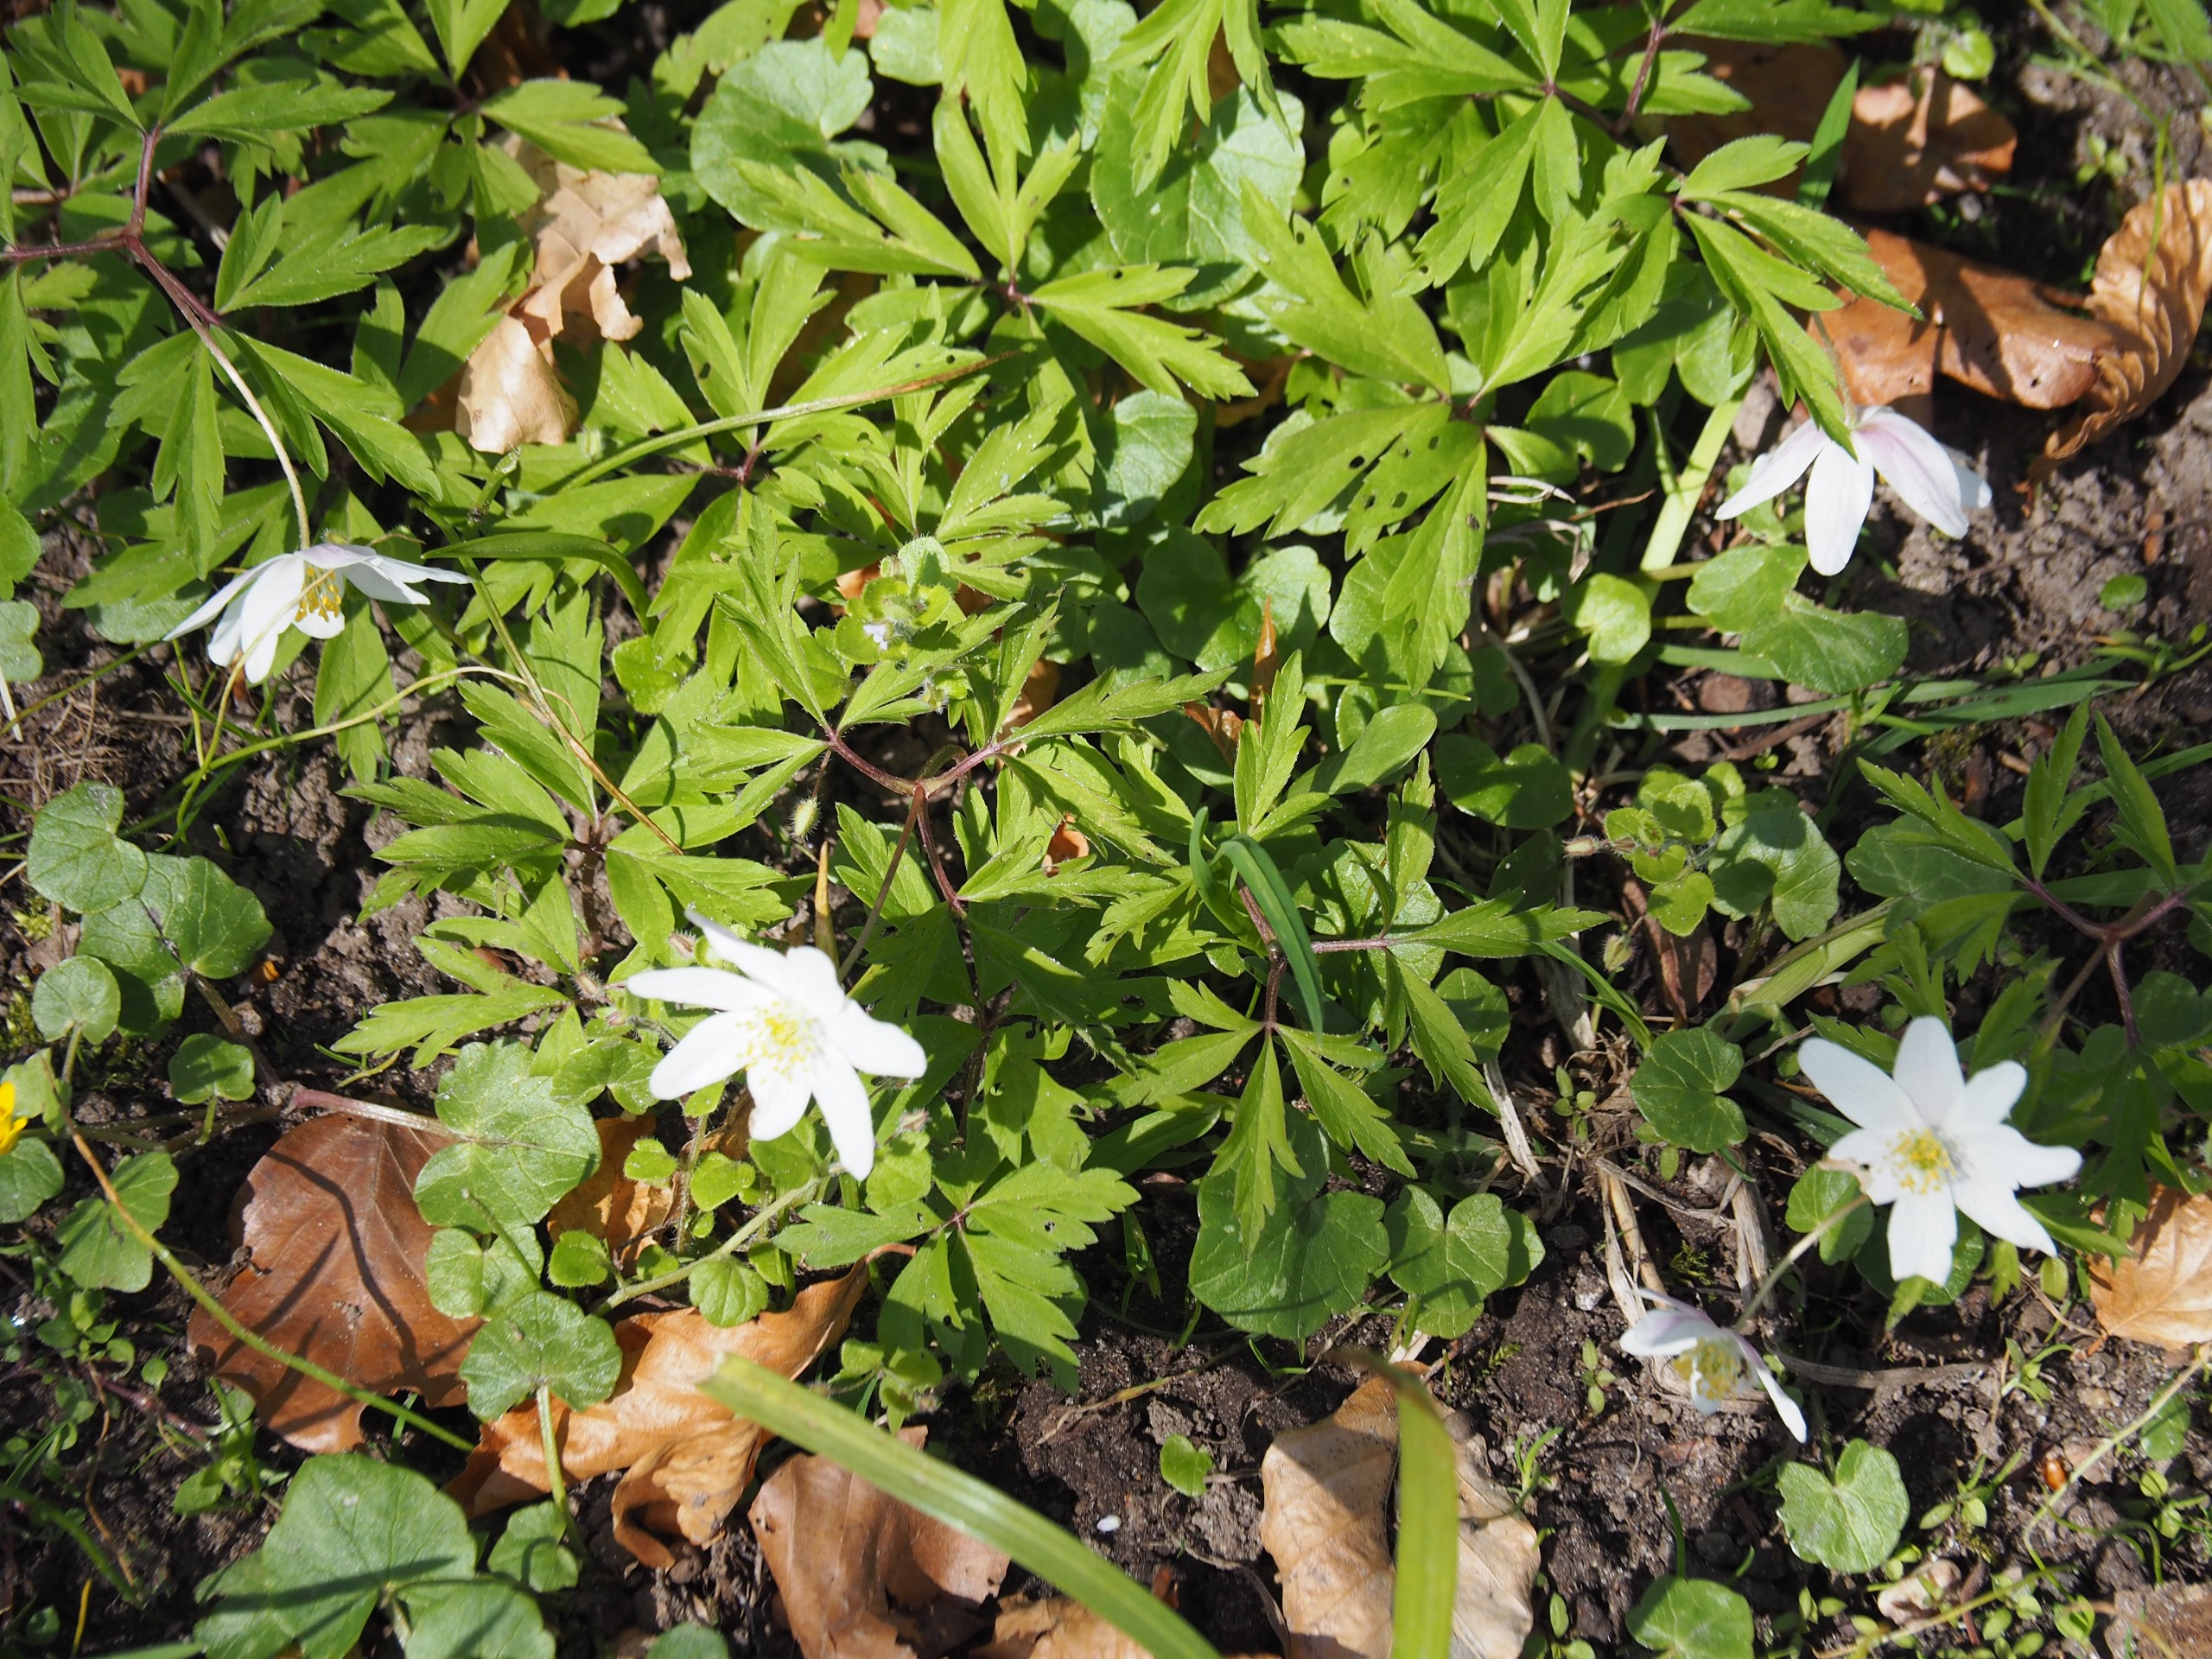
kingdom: Plantae
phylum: Tracheophyta
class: Magnoliopsida
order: Ranunculales
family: Ranunculaceae
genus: Anemone
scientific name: Anemone nemorosa
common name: Hvid anemone
